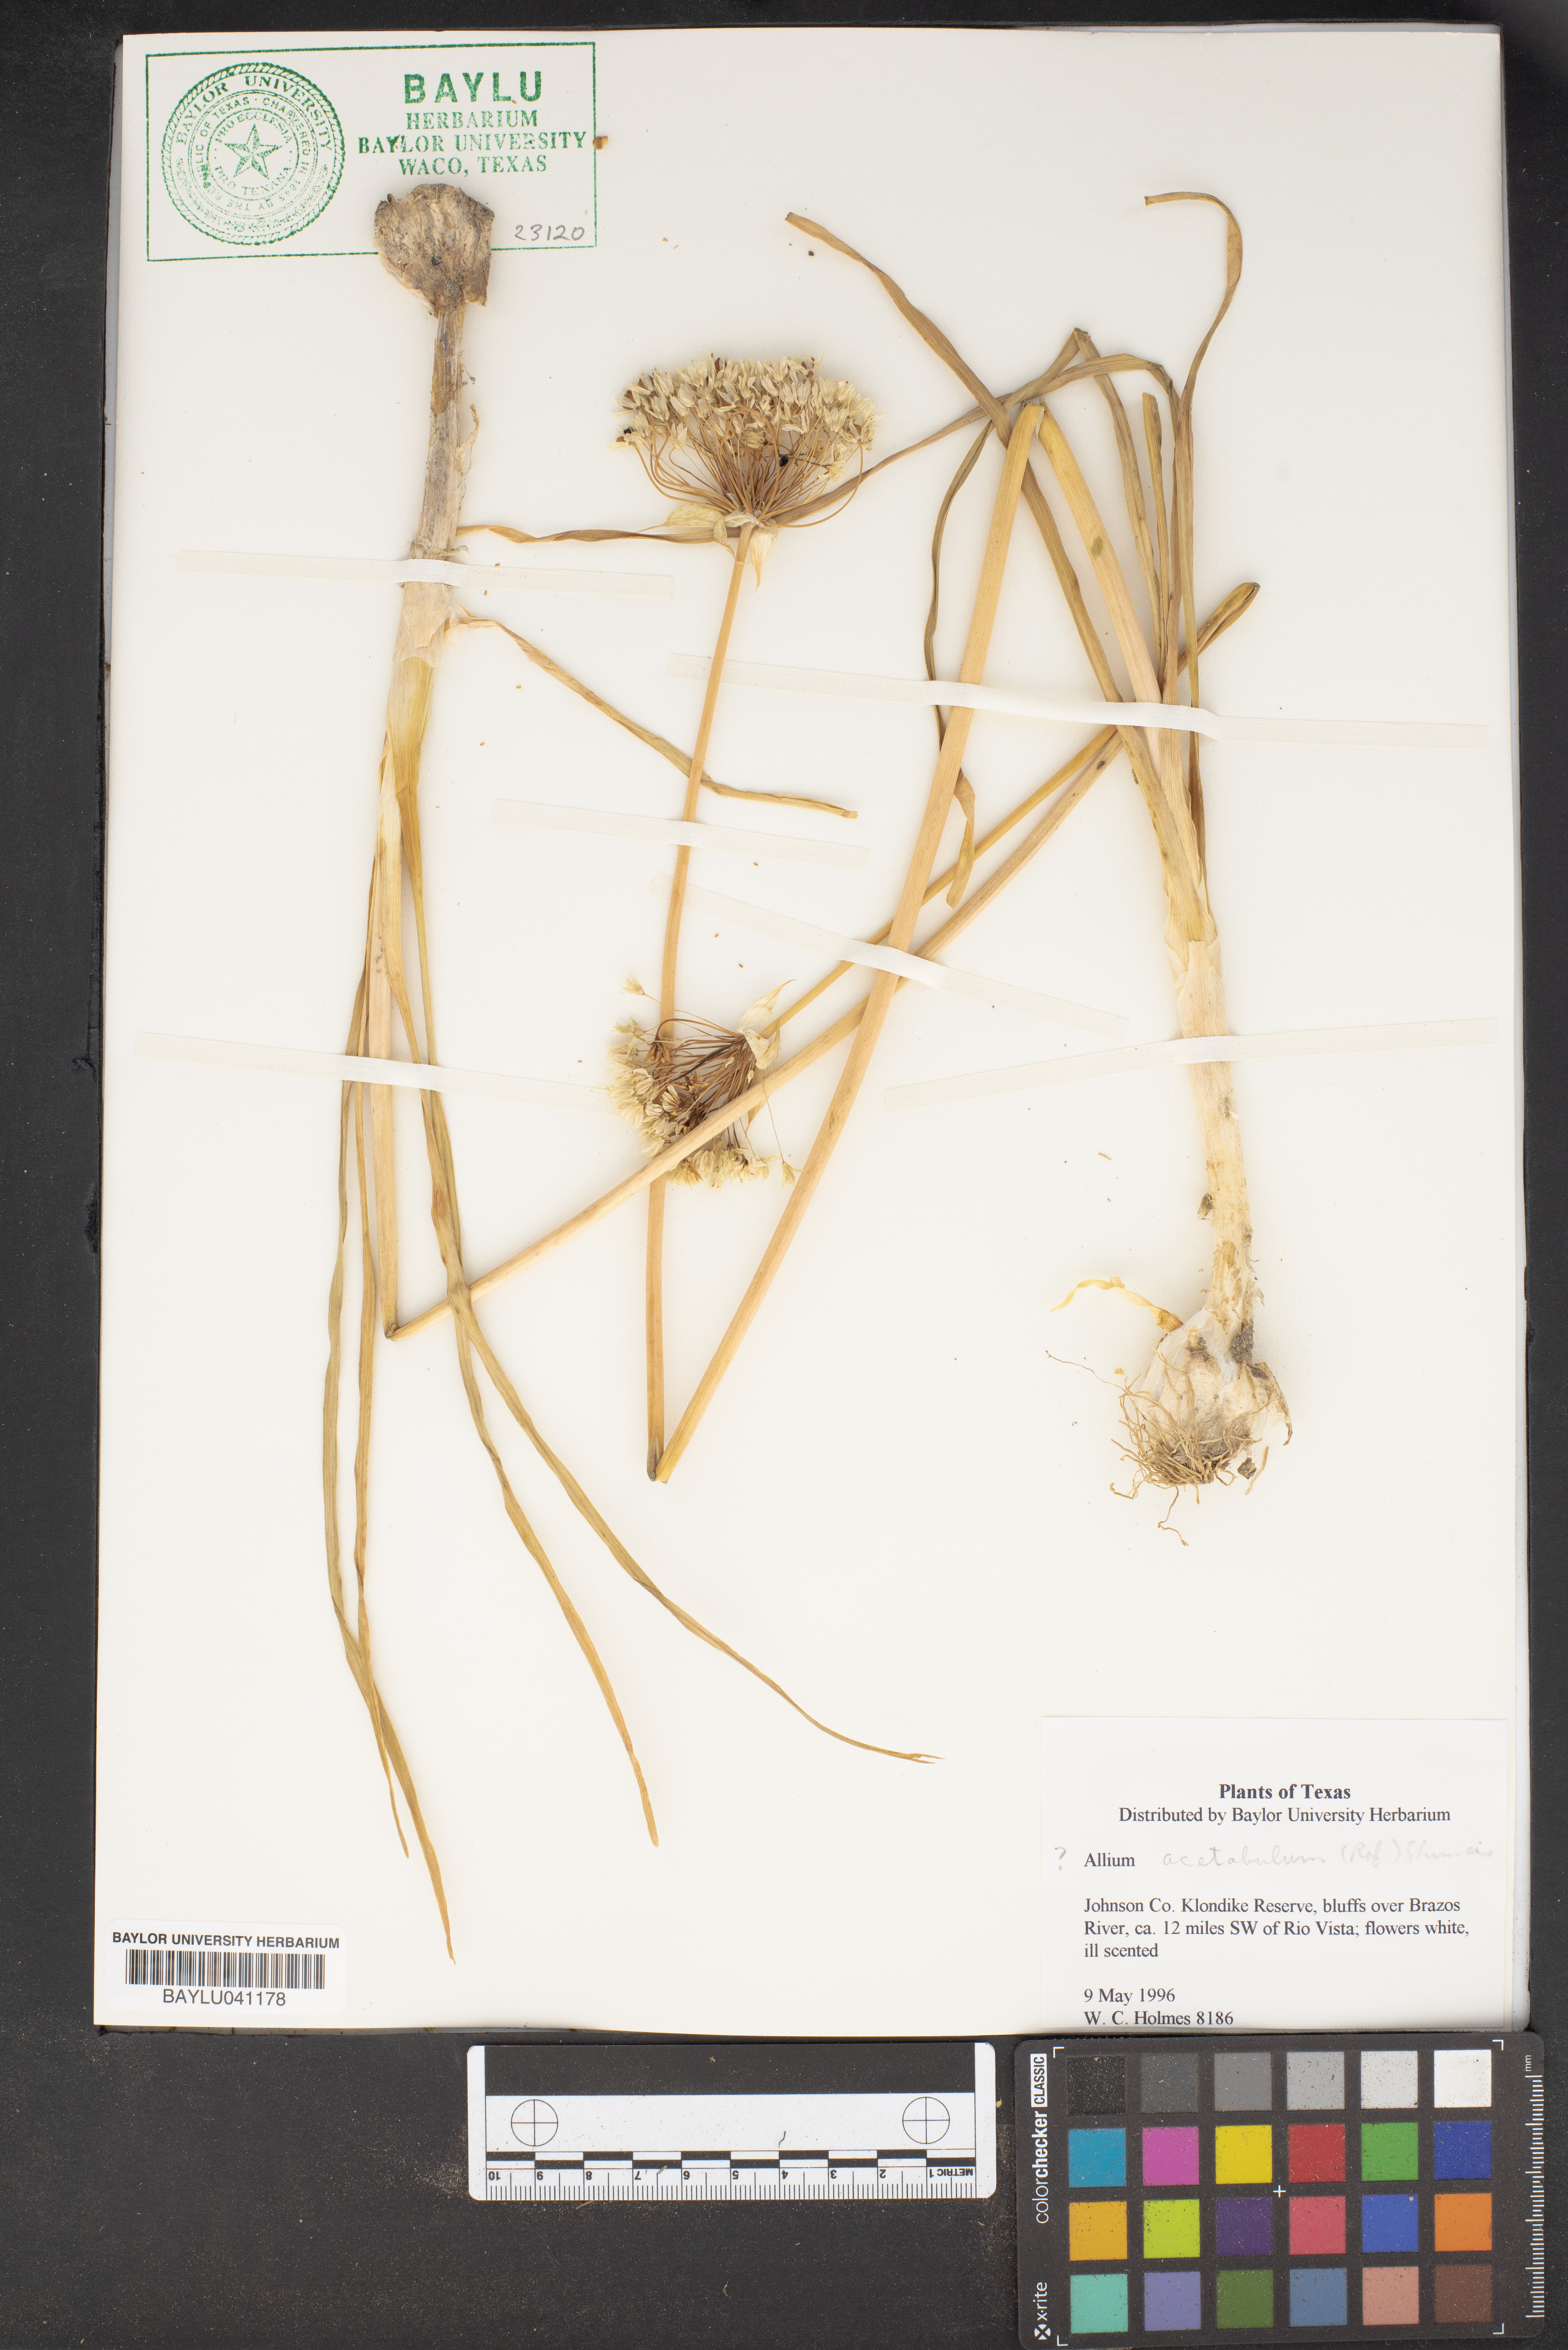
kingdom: Plantae
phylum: Tracheophyta
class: Liliopsida
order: Asparagales
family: Amaryllidaceae
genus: Allium
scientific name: Allium
